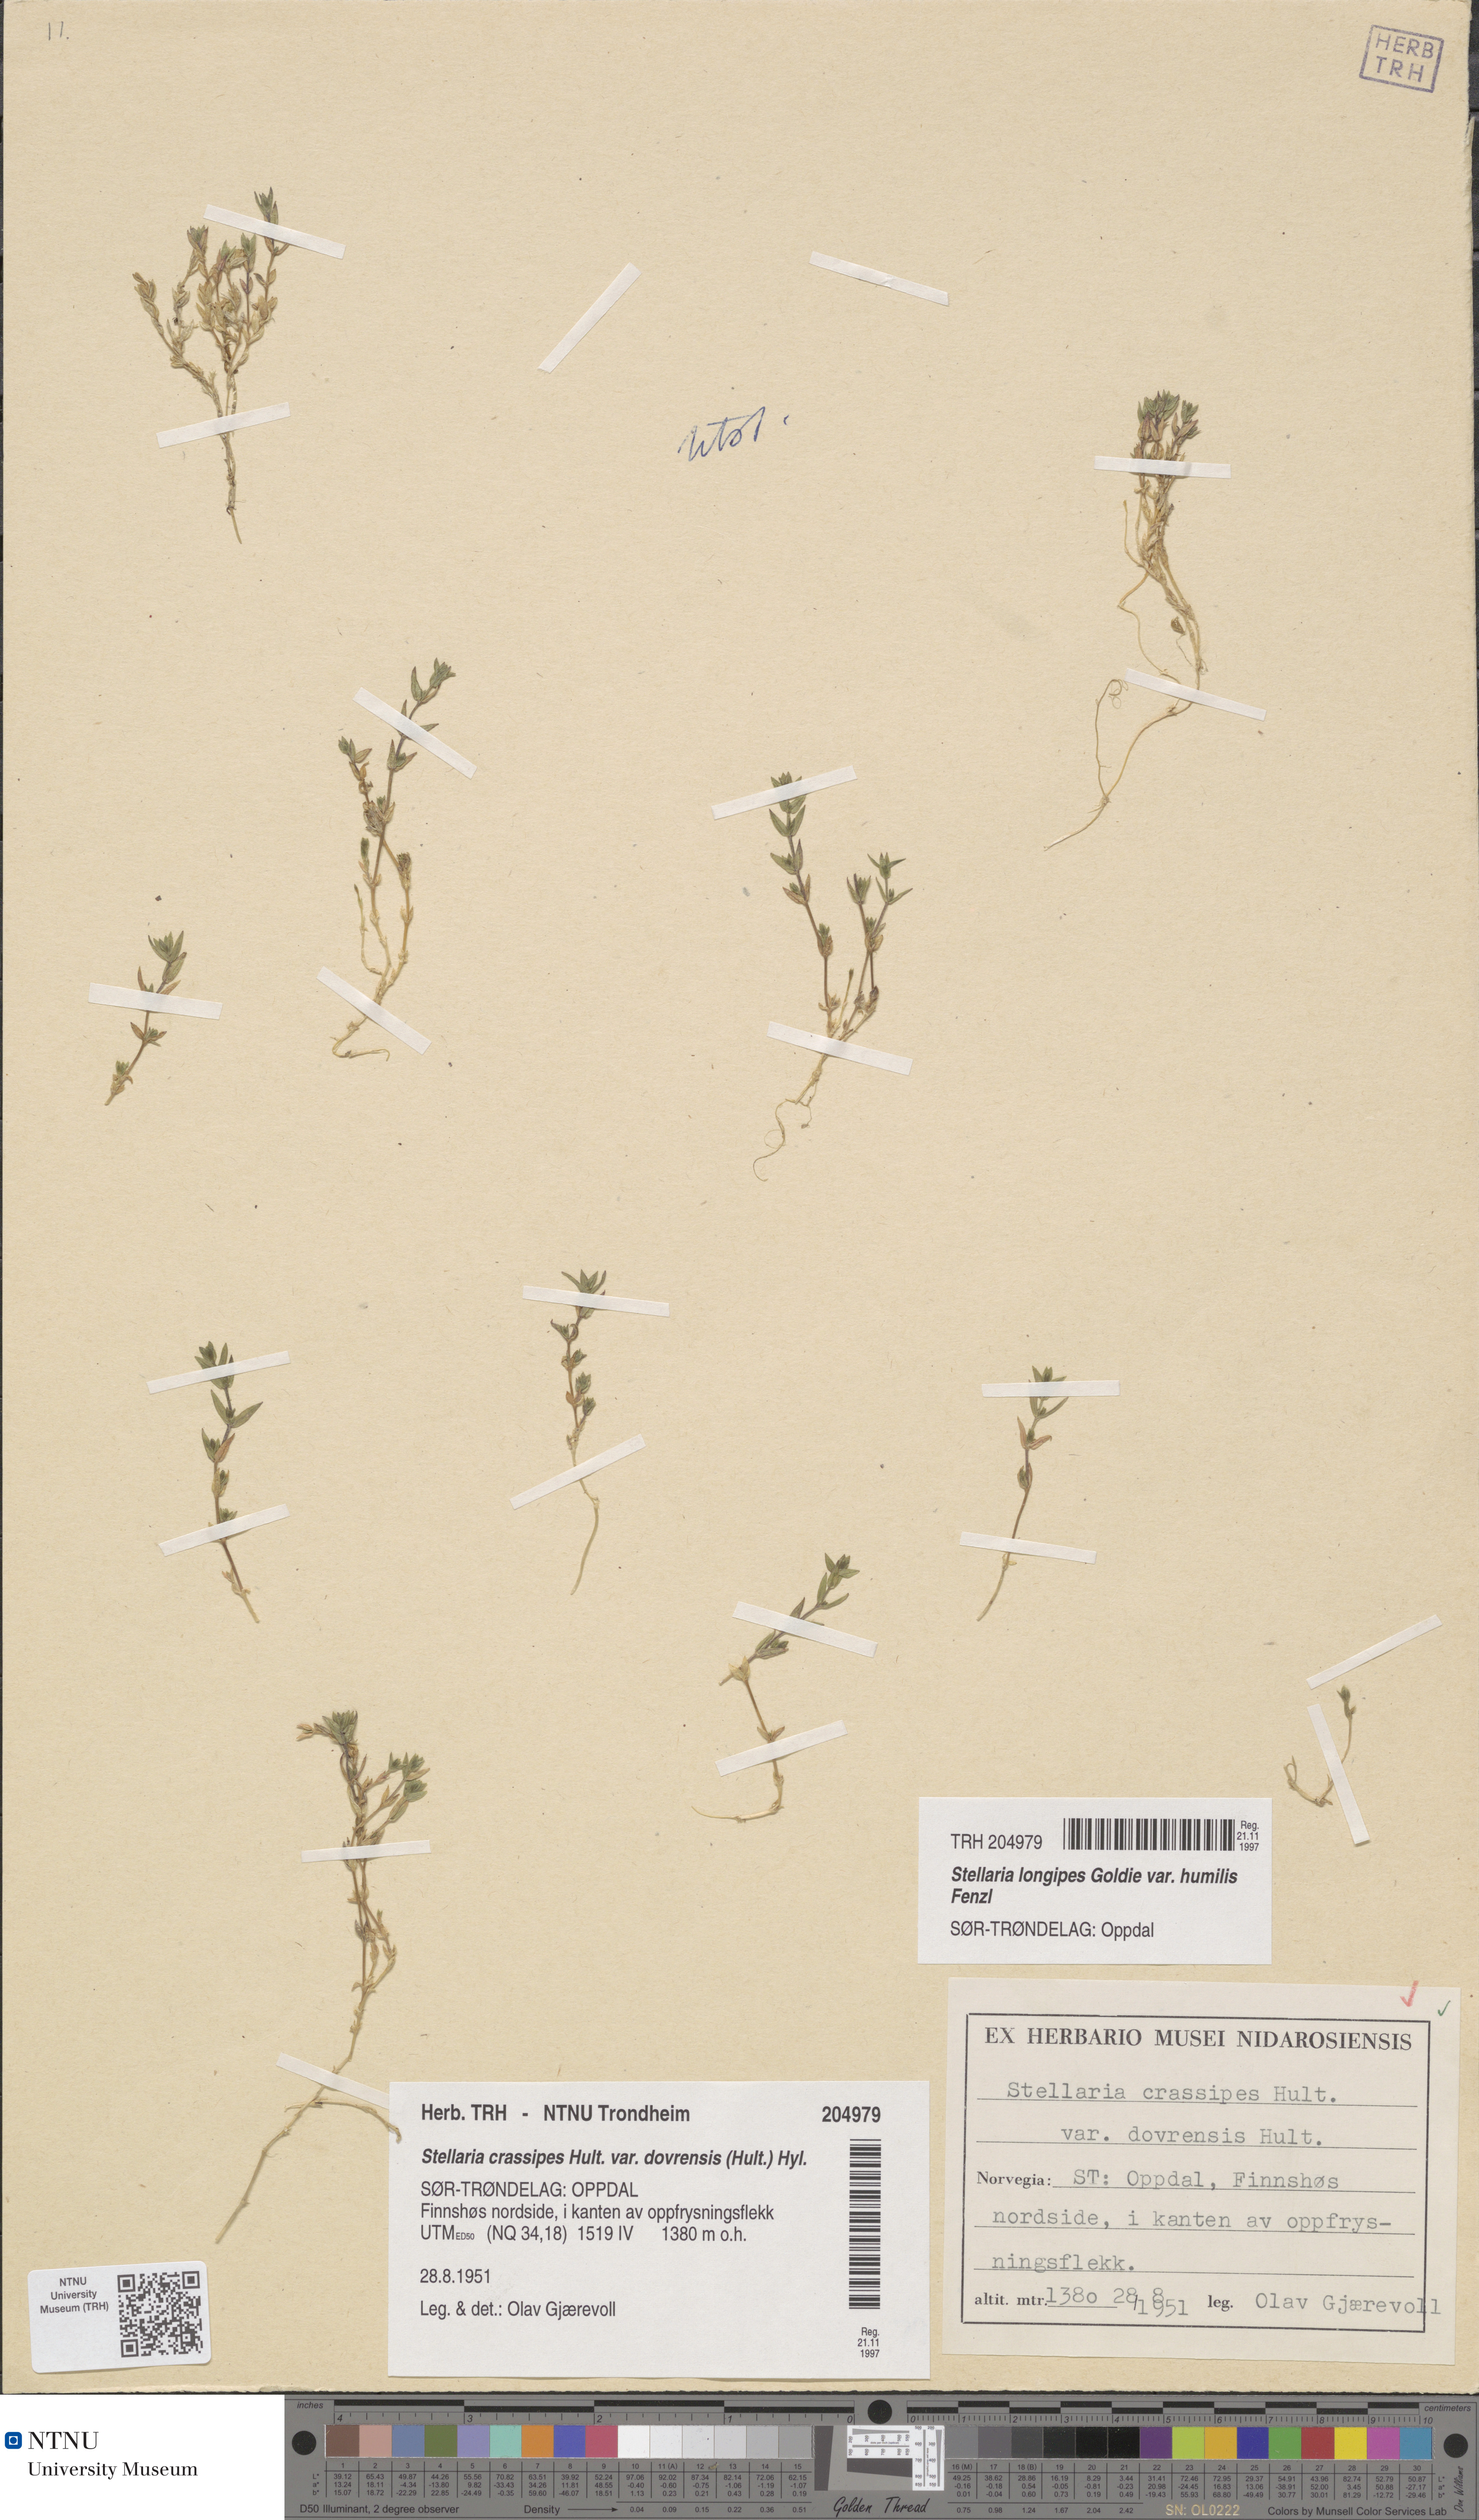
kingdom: Plantae
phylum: Tracheophyta
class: Magnoliopsida
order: Caryophyllales
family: Caryophyllaceae
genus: Stellaria
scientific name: Stellaria ruscifolia
